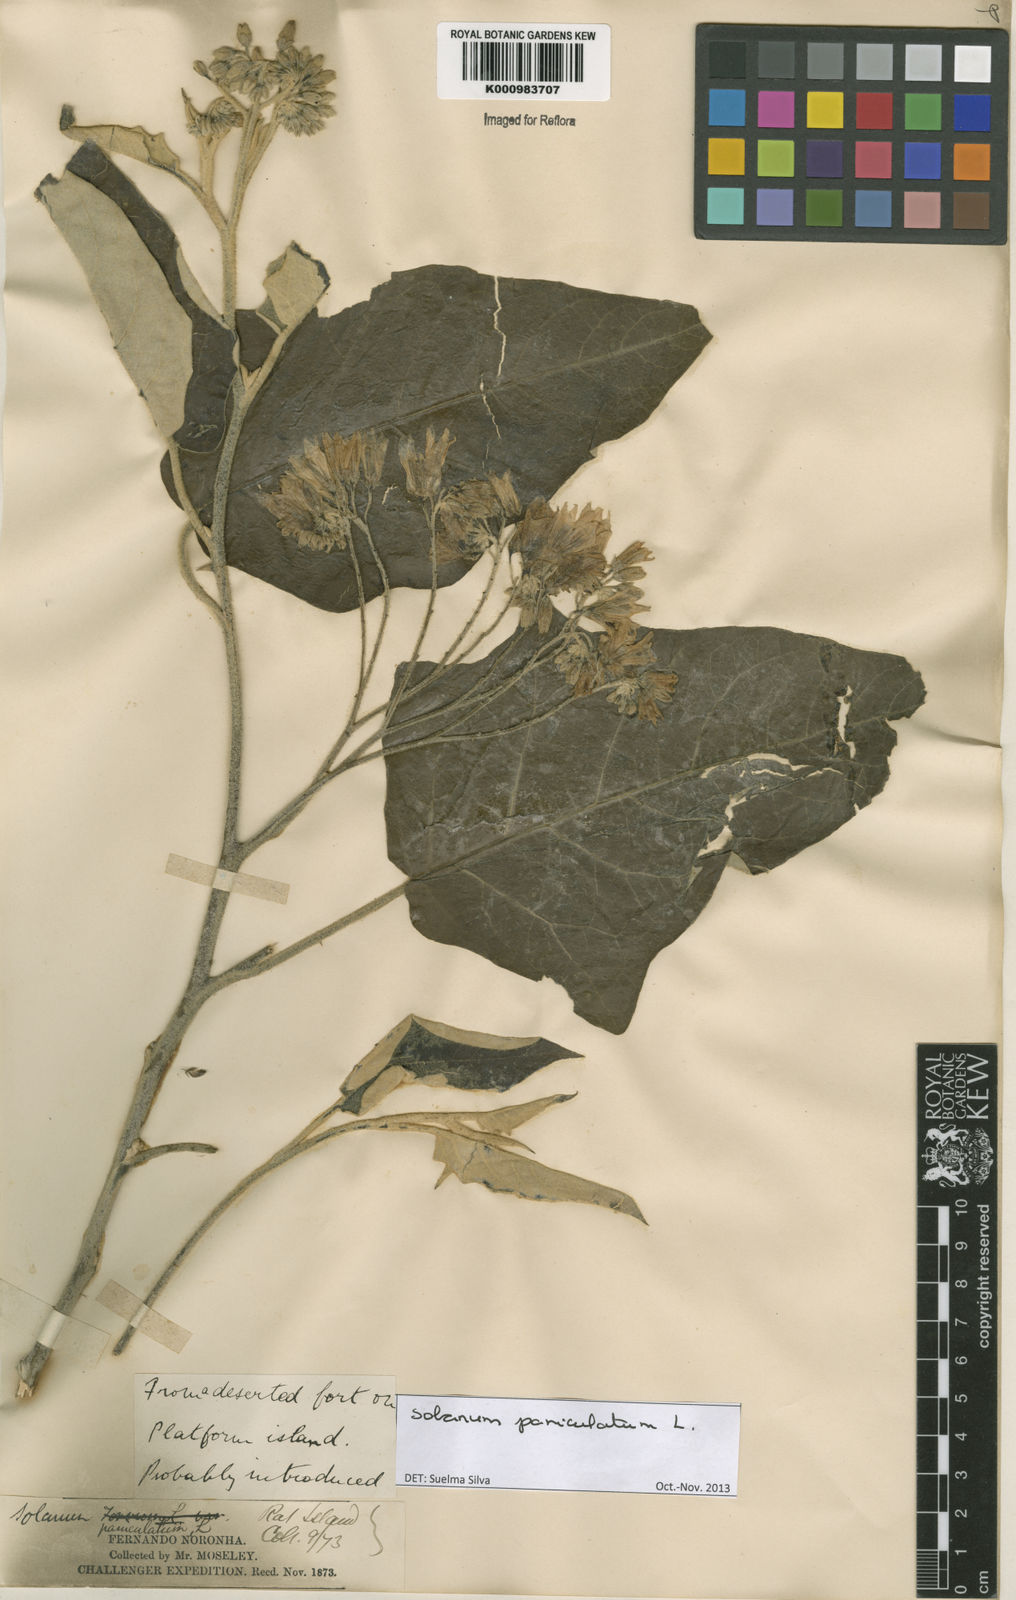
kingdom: Plantae
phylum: Tracheophyta
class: Magnoliopsida
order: Solanales
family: Solanaceae
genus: Solanum
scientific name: Solanum paniculatum
